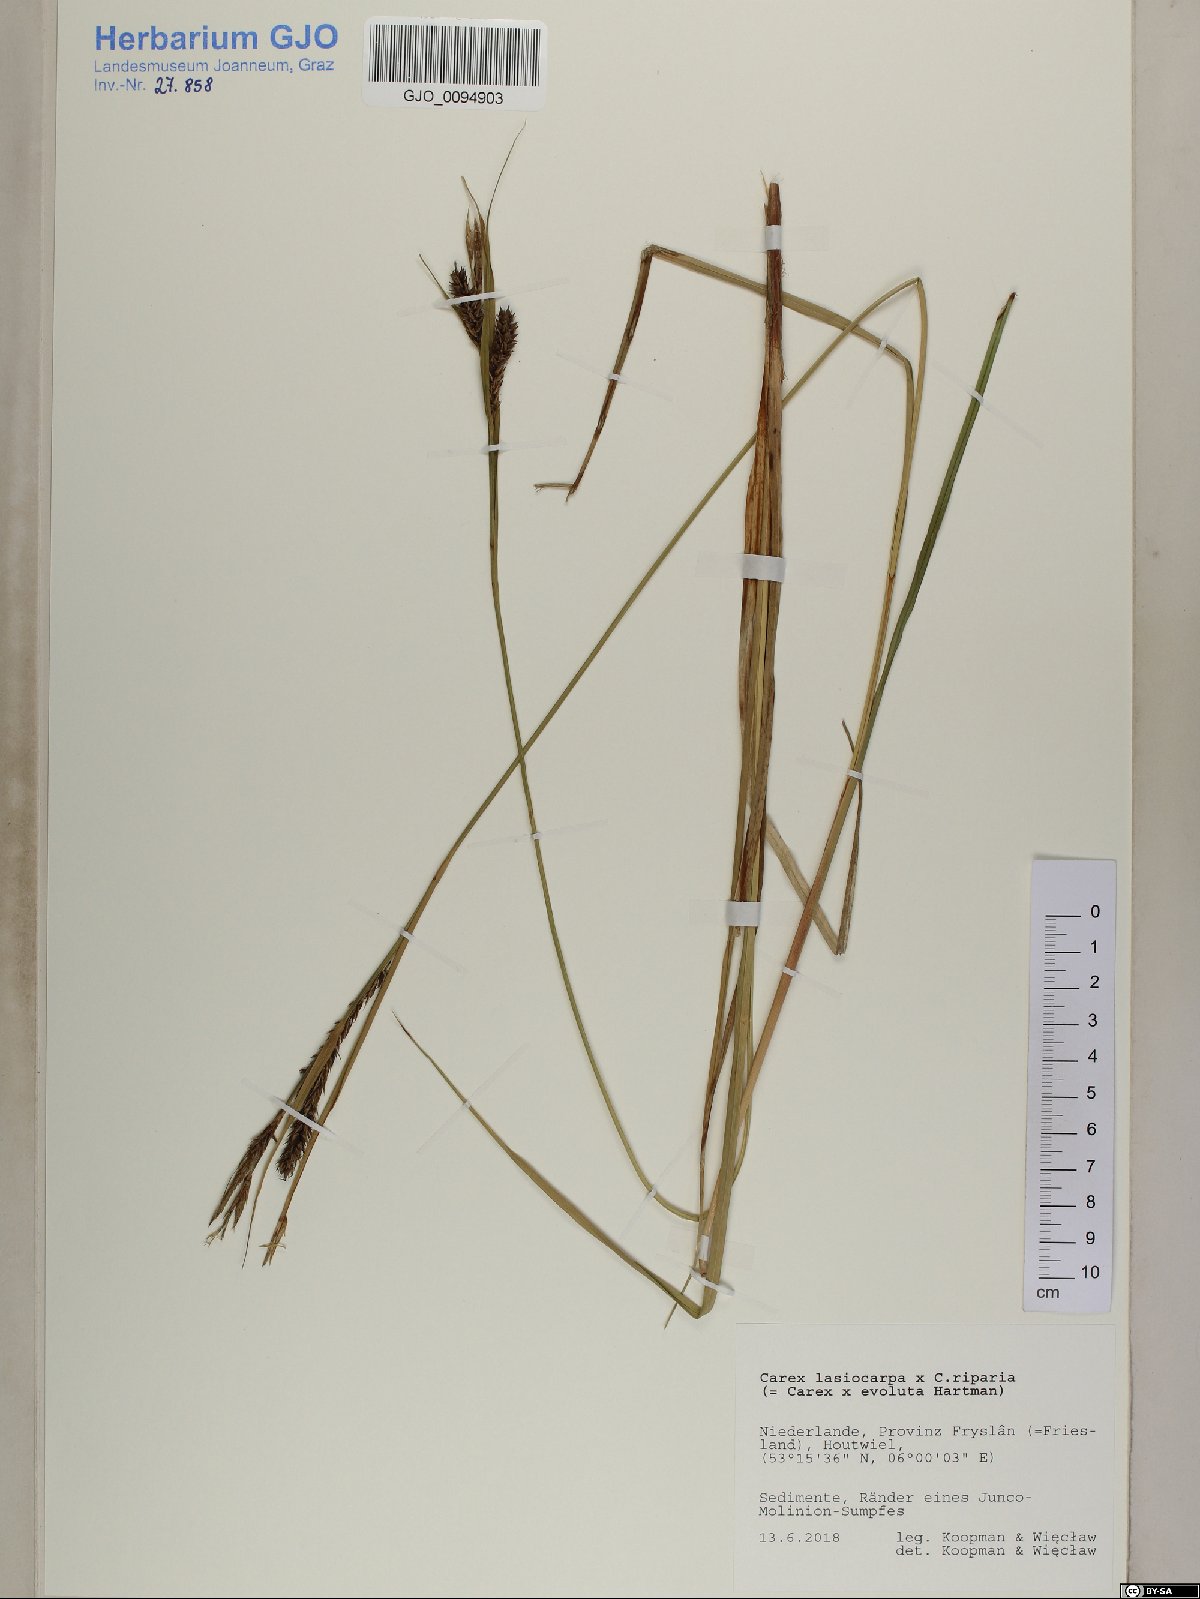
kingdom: Plantae
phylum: Tracheophyta
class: Liliopsida
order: Poales
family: Cyperaceae
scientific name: Cyperaceae
